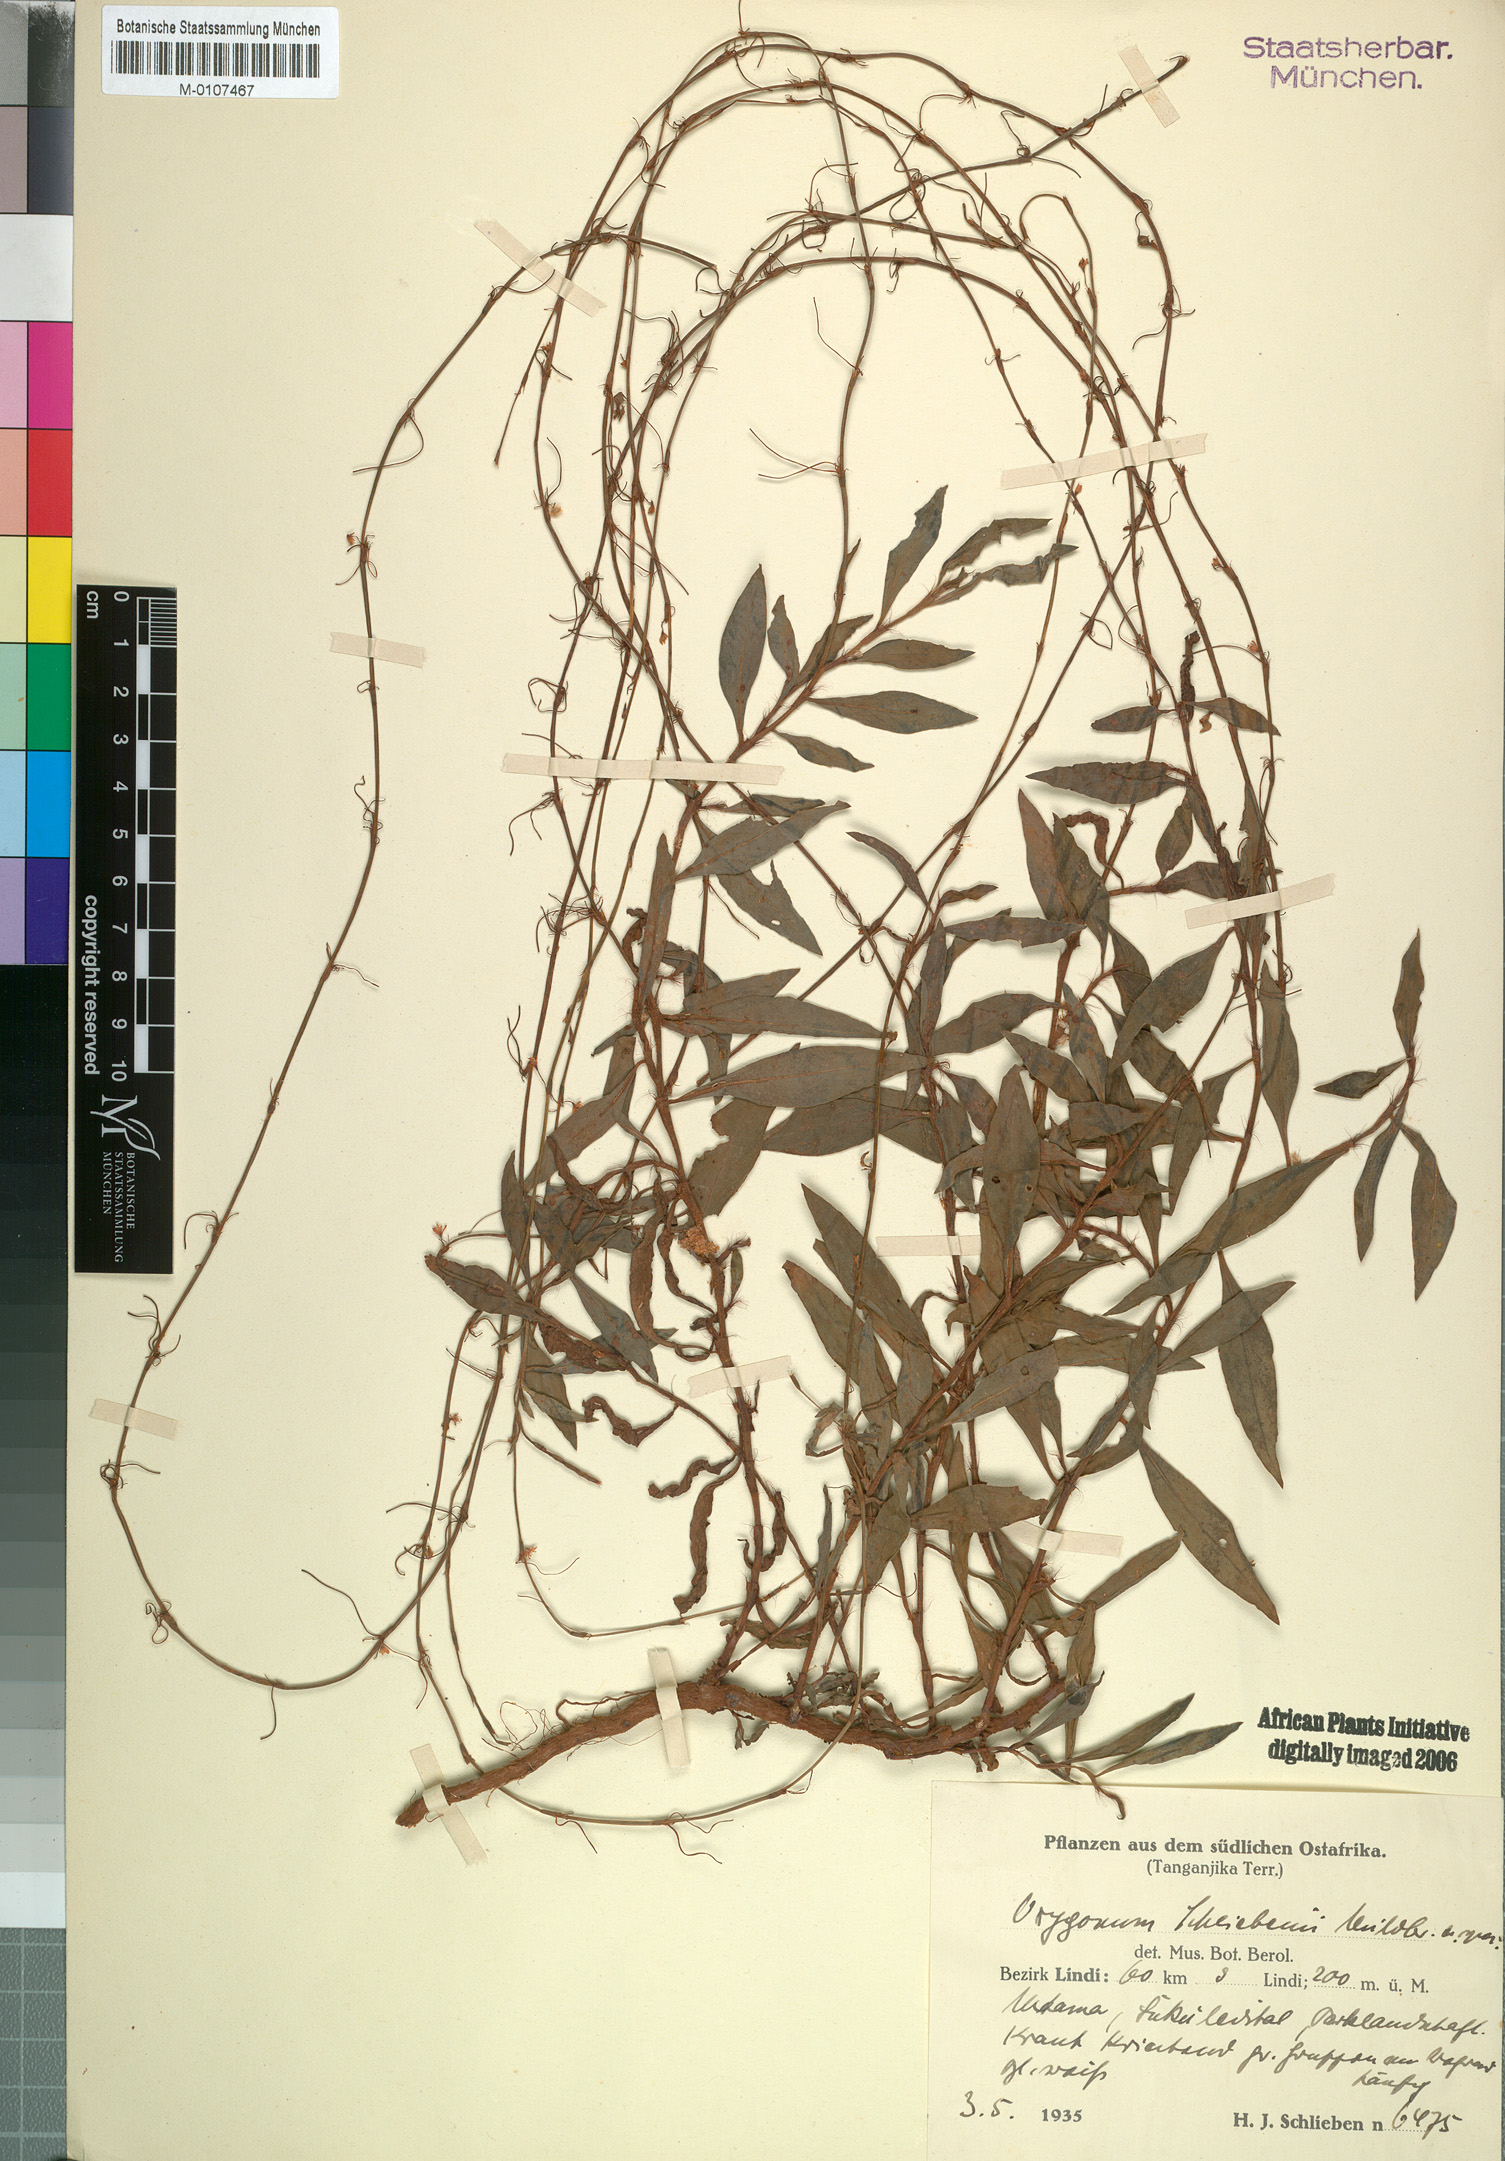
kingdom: Plantae
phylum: Tracheophyta
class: Magnoliopsida
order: Caryophyllales
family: Polygonaceae
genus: Oxygonum
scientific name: Oxygonum schliebenii
